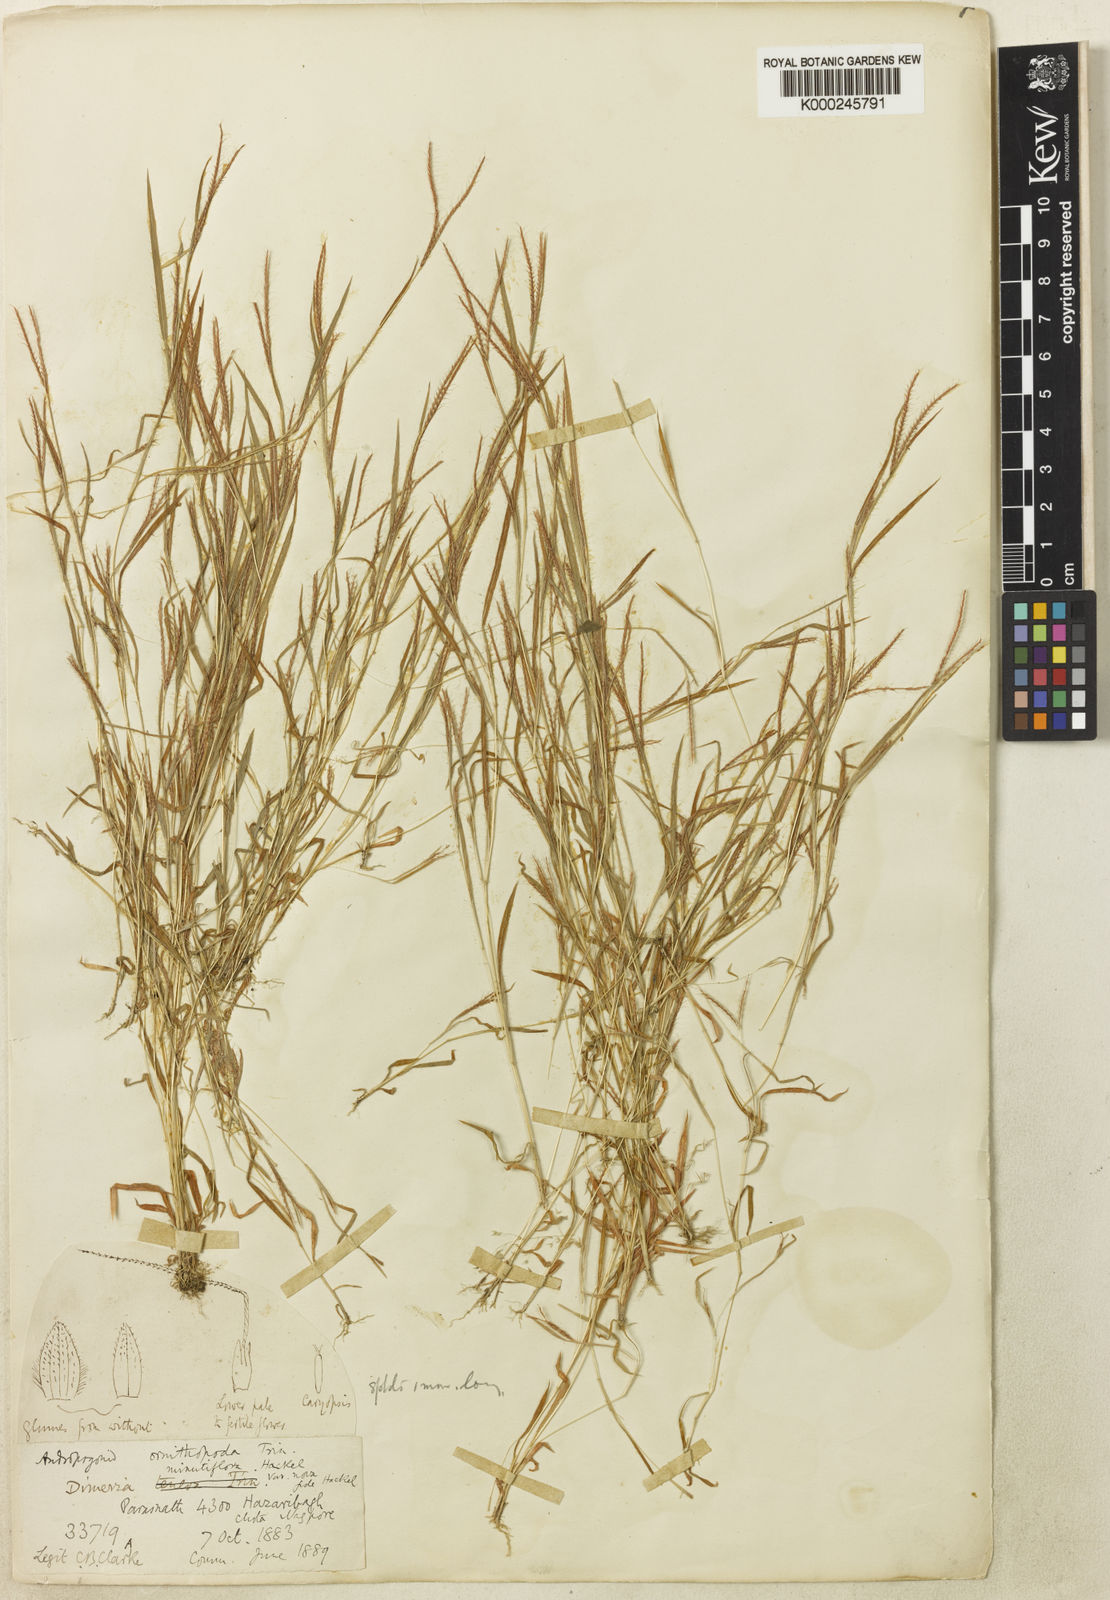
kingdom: Plantae
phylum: Tracheophyta
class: Liliopsida
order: Poales
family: Poaceae
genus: Dimeria
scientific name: Dimeria ornithopoda
